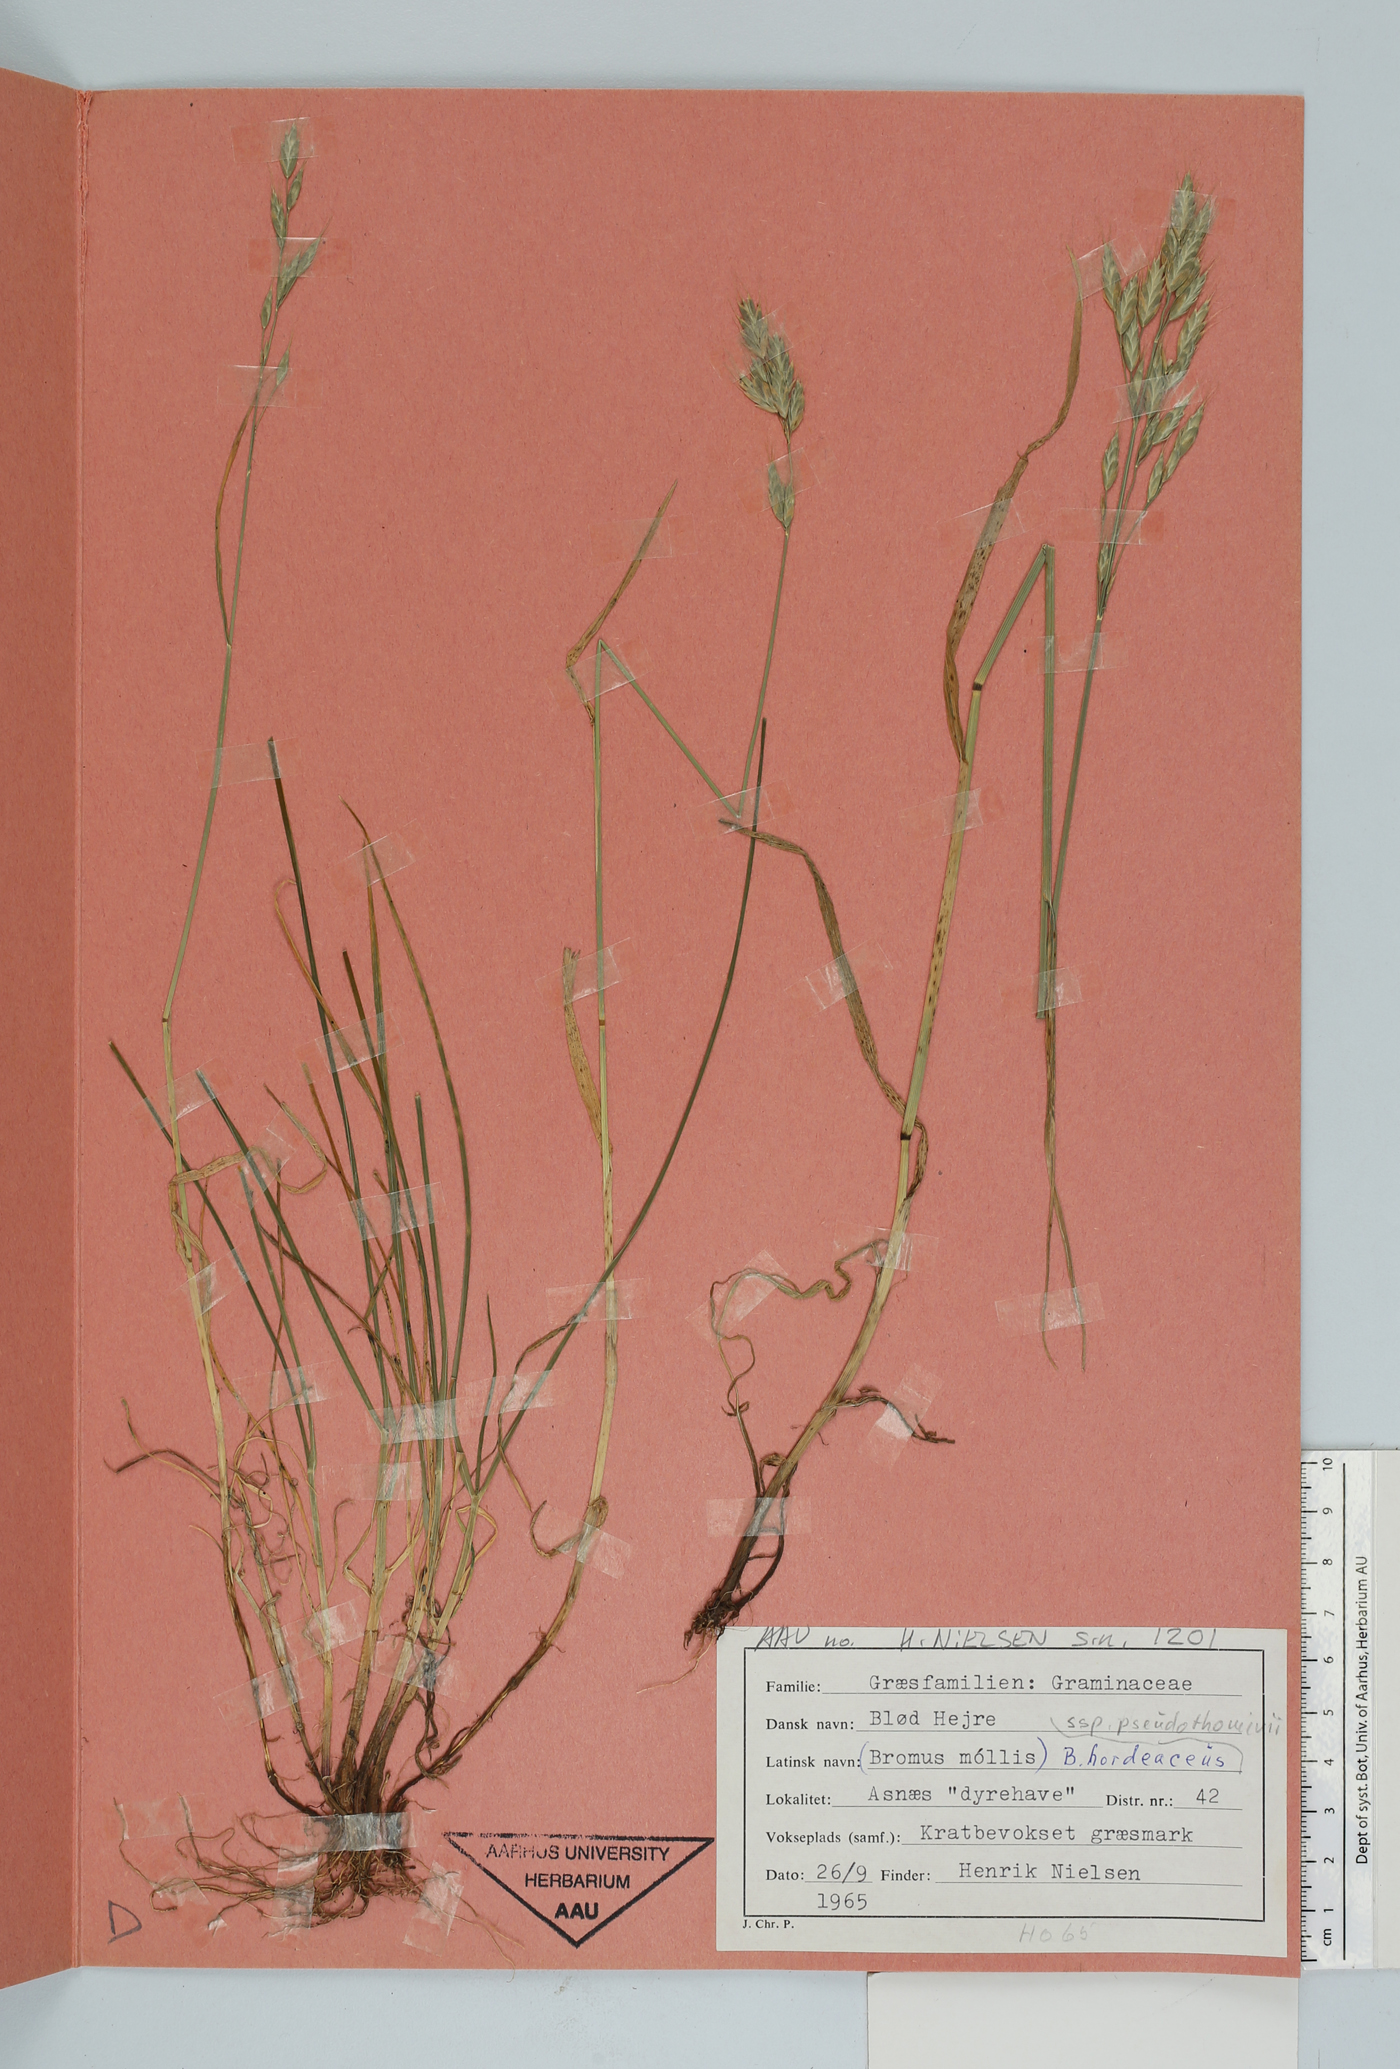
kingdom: Plantae
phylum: Tracheophyta
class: Liliopsida
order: Poales
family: Poaceae
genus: Bromus
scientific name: Bromus hordeaceus
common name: Soft brome
